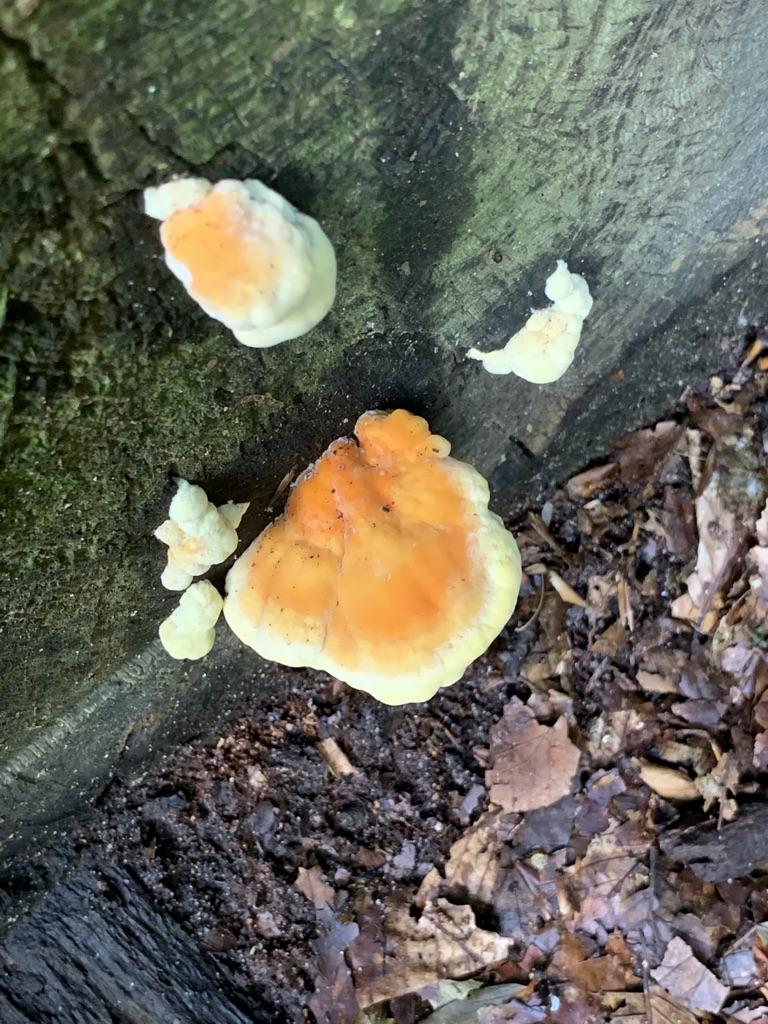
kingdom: Fungi
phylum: Basidiomycota
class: Agaricomycetes
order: Polyporales
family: Laetiporaceae
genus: Laetiporus
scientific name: Laetiporus sulphureus
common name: svovlporesvamp
